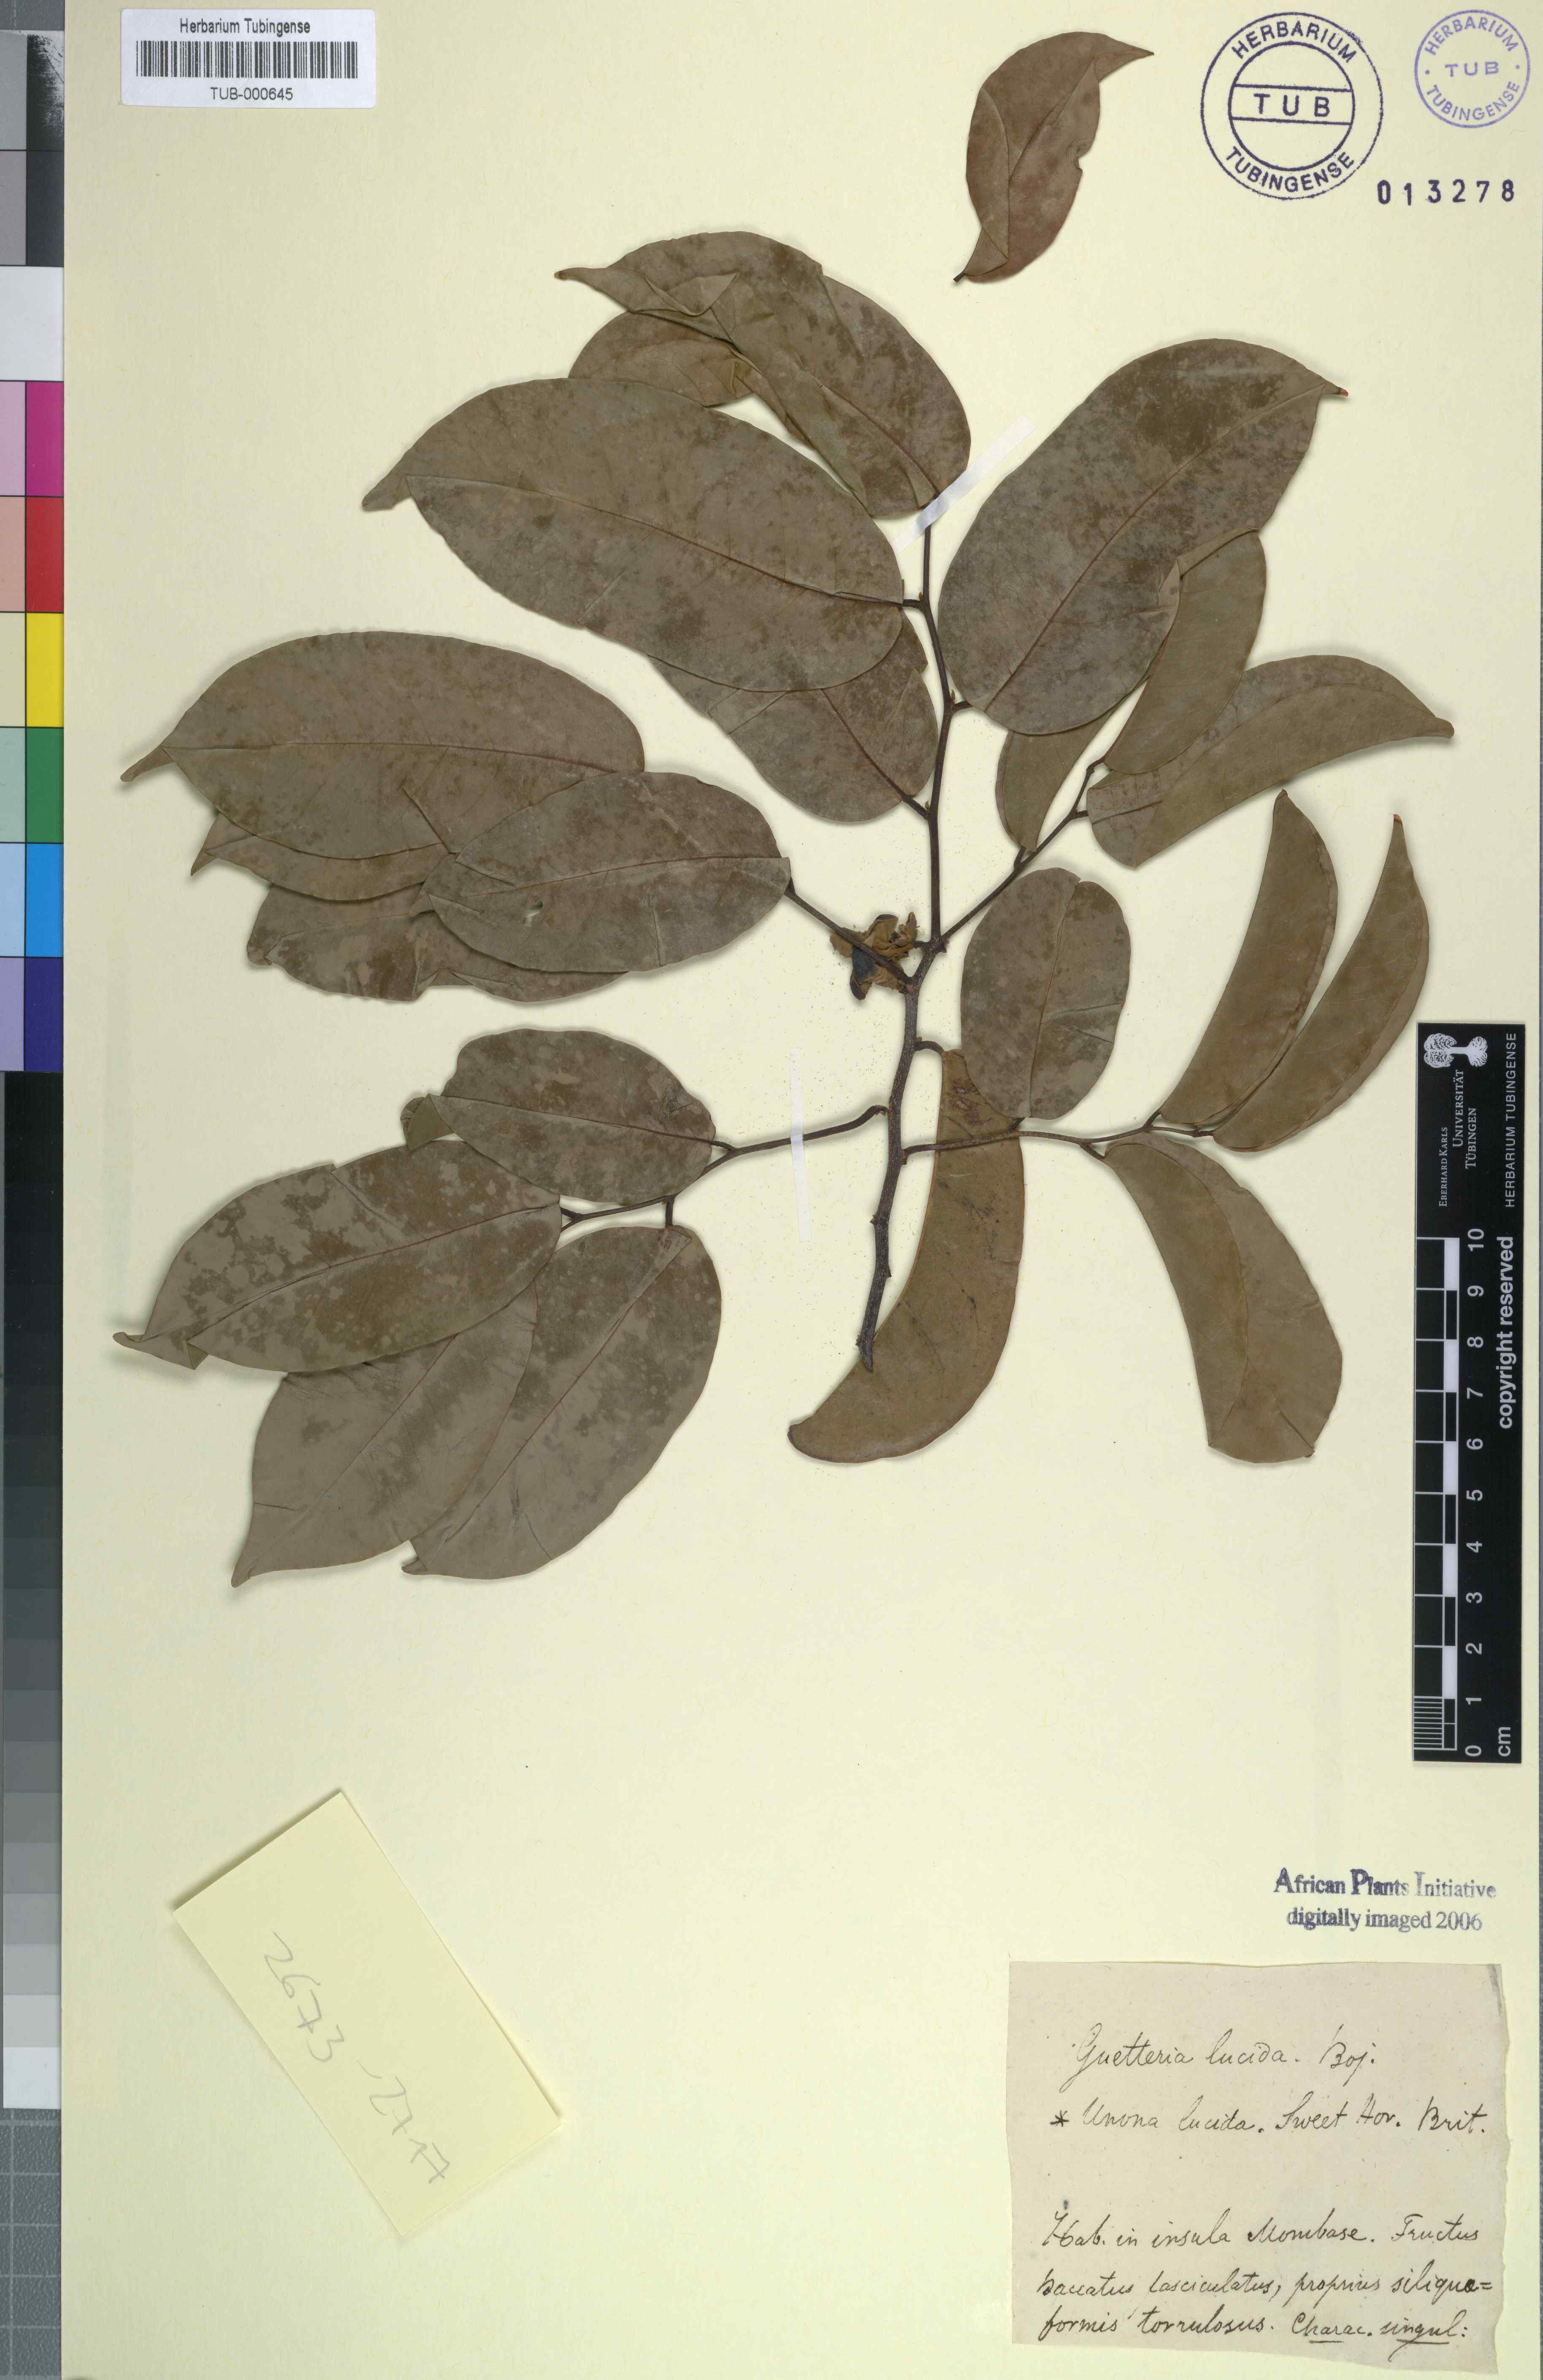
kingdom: Plantae
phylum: Tracheophyta
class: Magnoliopsida
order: Magnoliales
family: Annonaceae
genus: Uvaria
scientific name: Uvaria lucida
